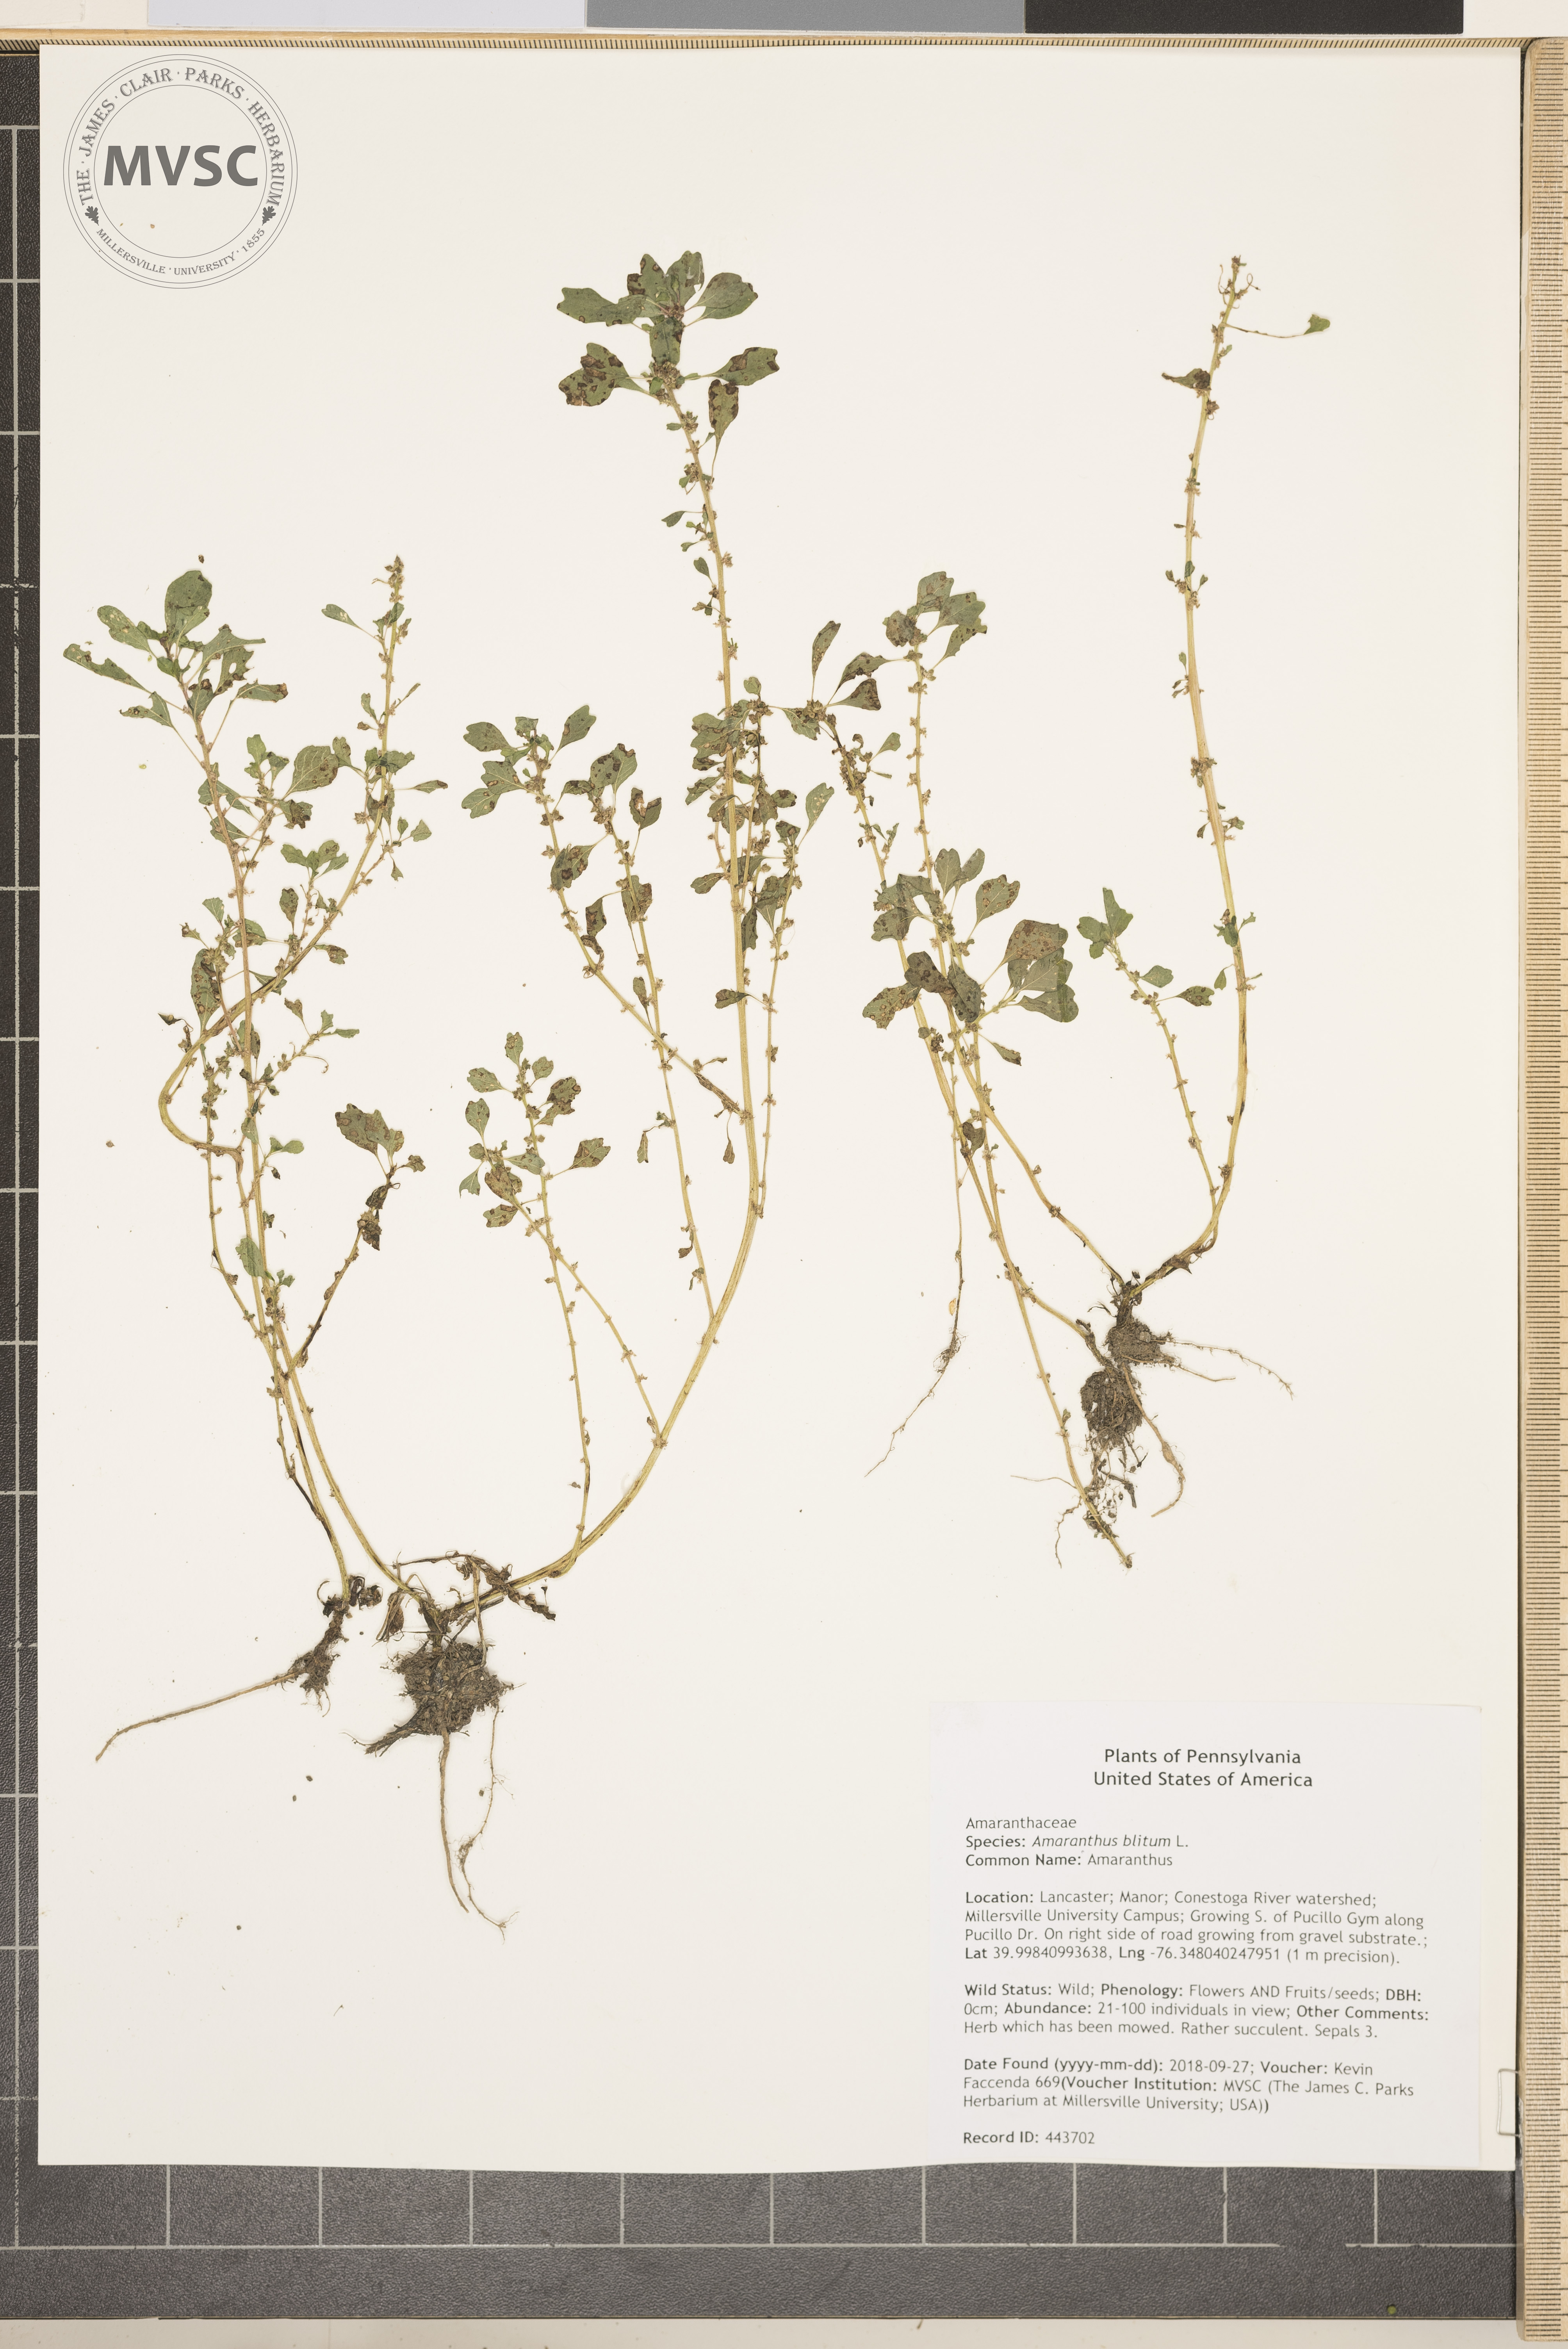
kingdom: Plantae
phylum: Tracheophyta
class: Magnoliopsida
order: Caryophyllales
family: Amaranthaceae
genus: Amaranthus
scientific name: Amaranthus blitum
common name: Amaranthus
